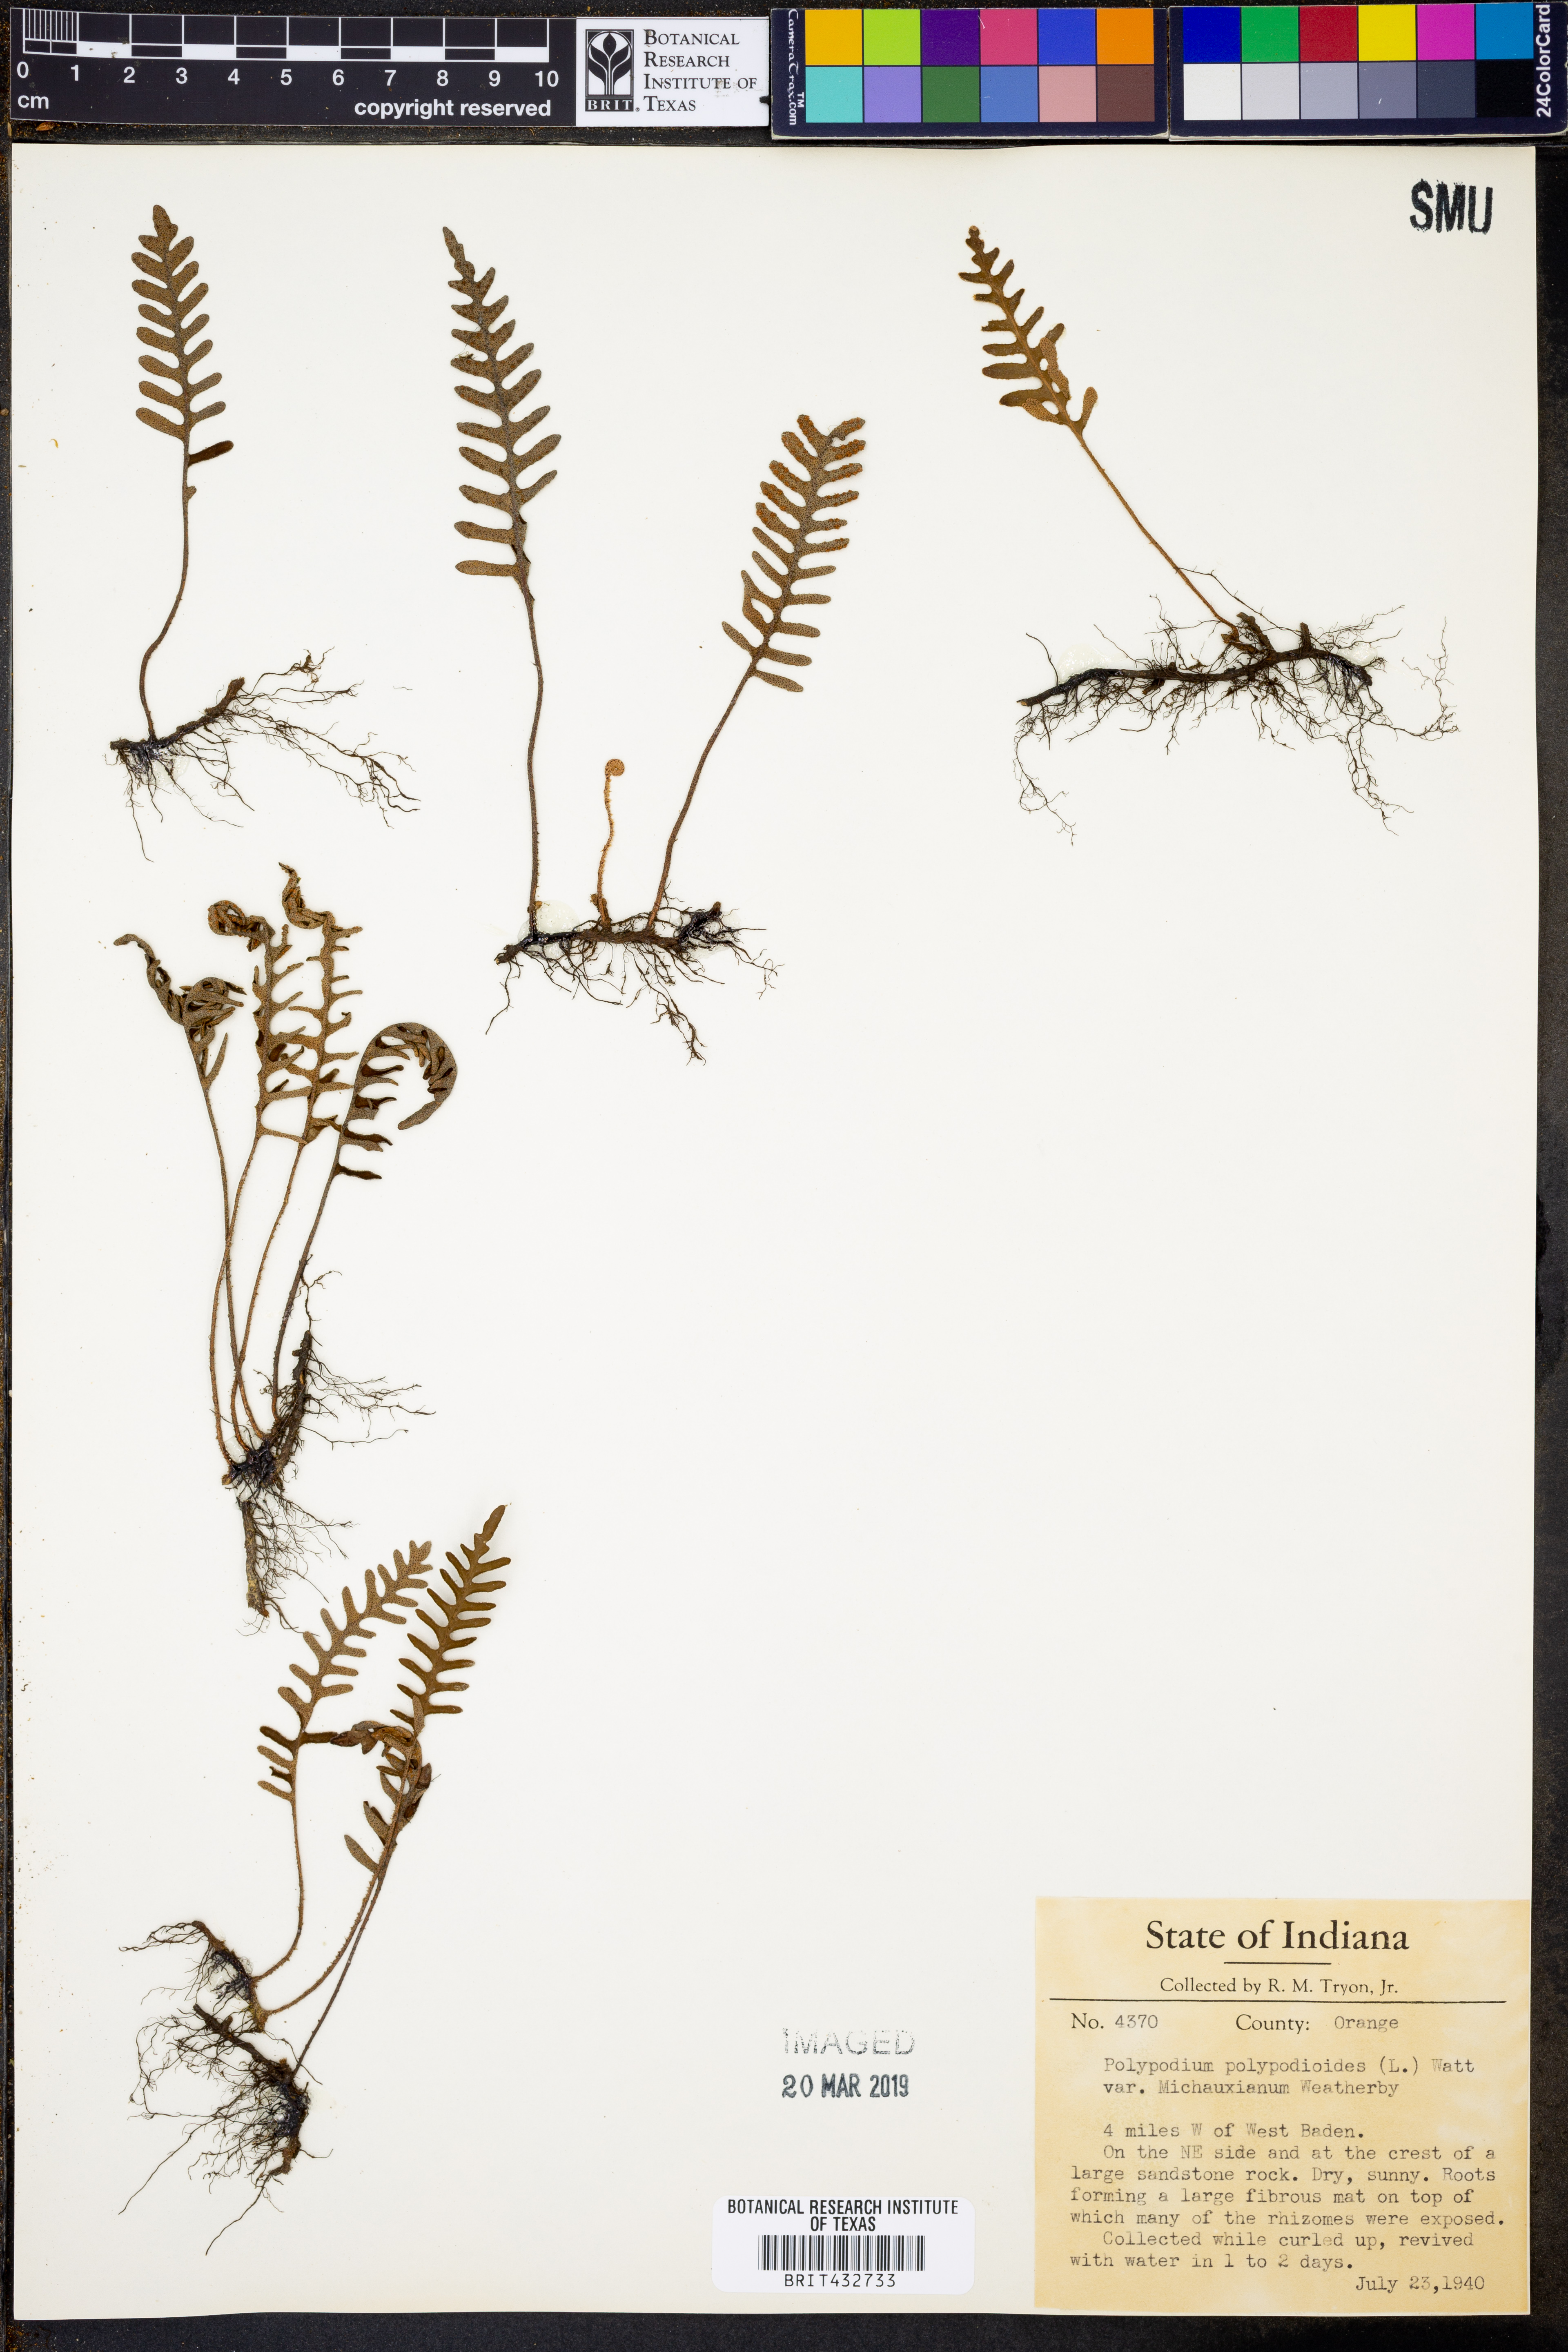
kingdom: Plantae
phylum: Tracheophyta
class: Polypodiopsida
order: Polypodiales
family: Polypodiaceae
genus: Pleopeltis
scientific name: Pleopeltis michauxiana
